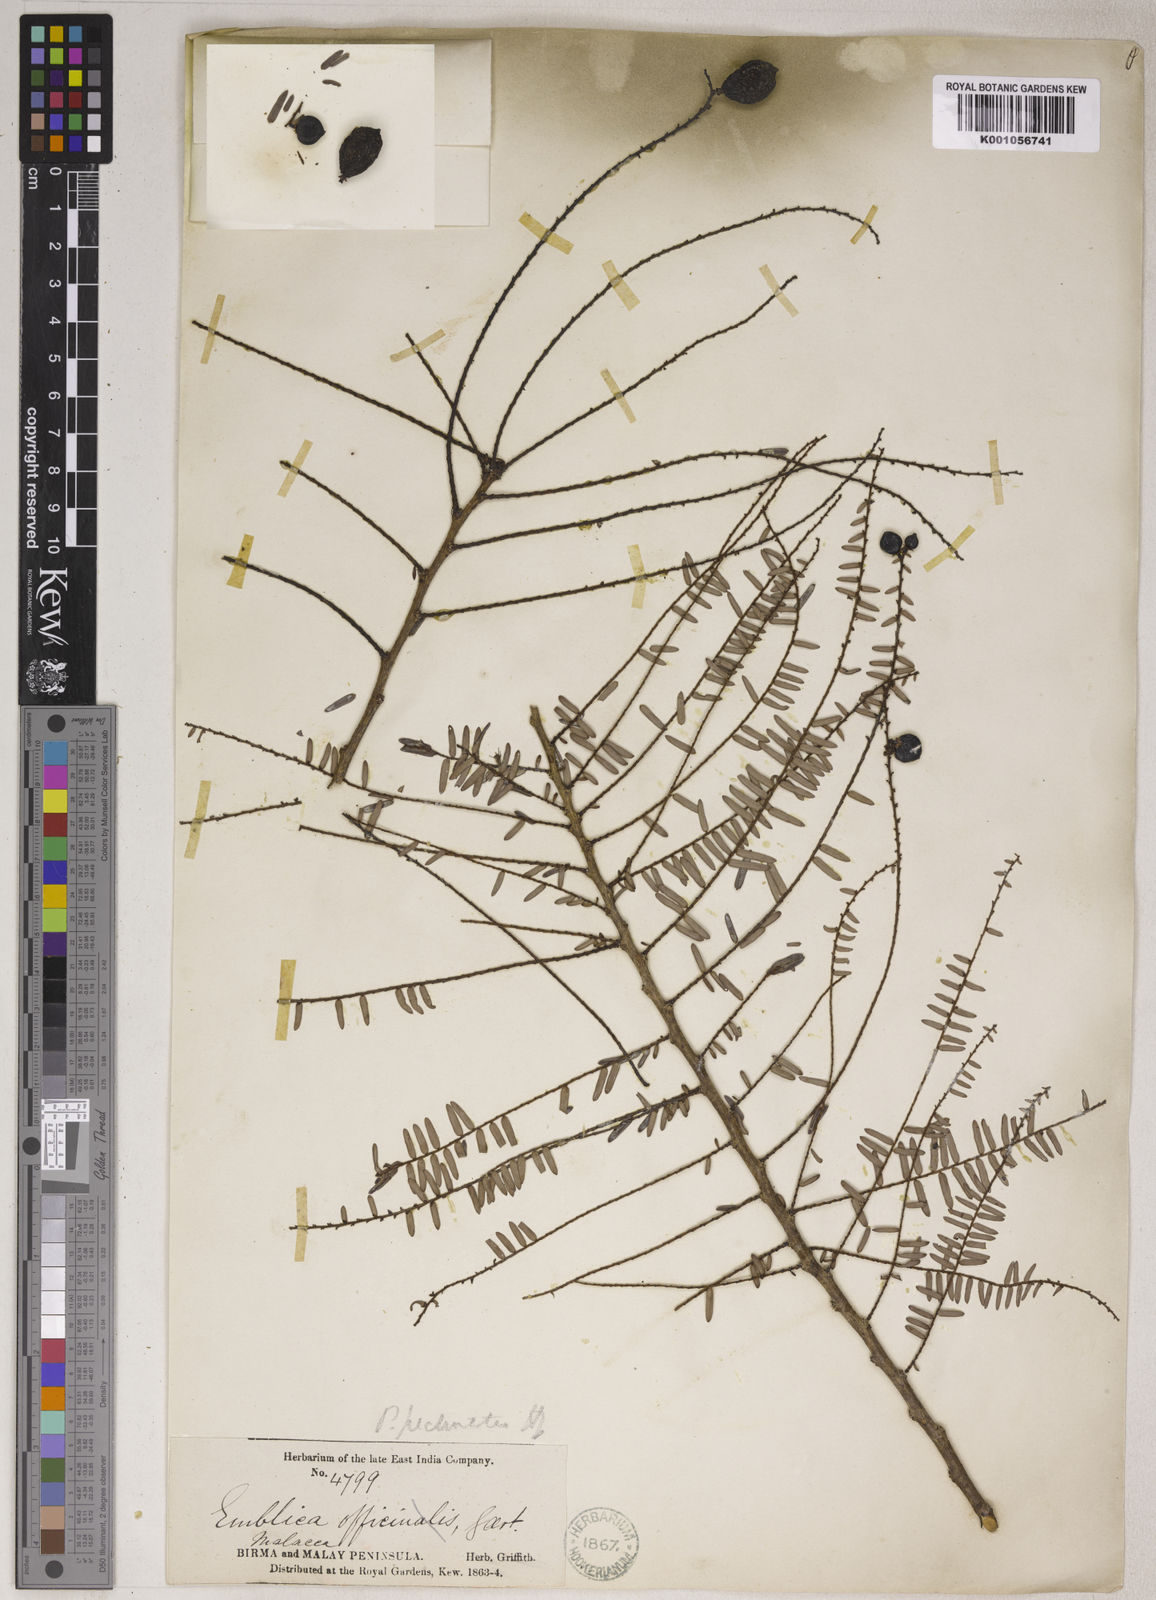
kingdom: Plantae
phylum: Tracheophyta
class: Magnoliopsida
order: Malpighiales
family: Phyllanthaceae
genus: Phyllanthus
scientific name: Phyllanthus emblica
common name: Indian gooseberry
